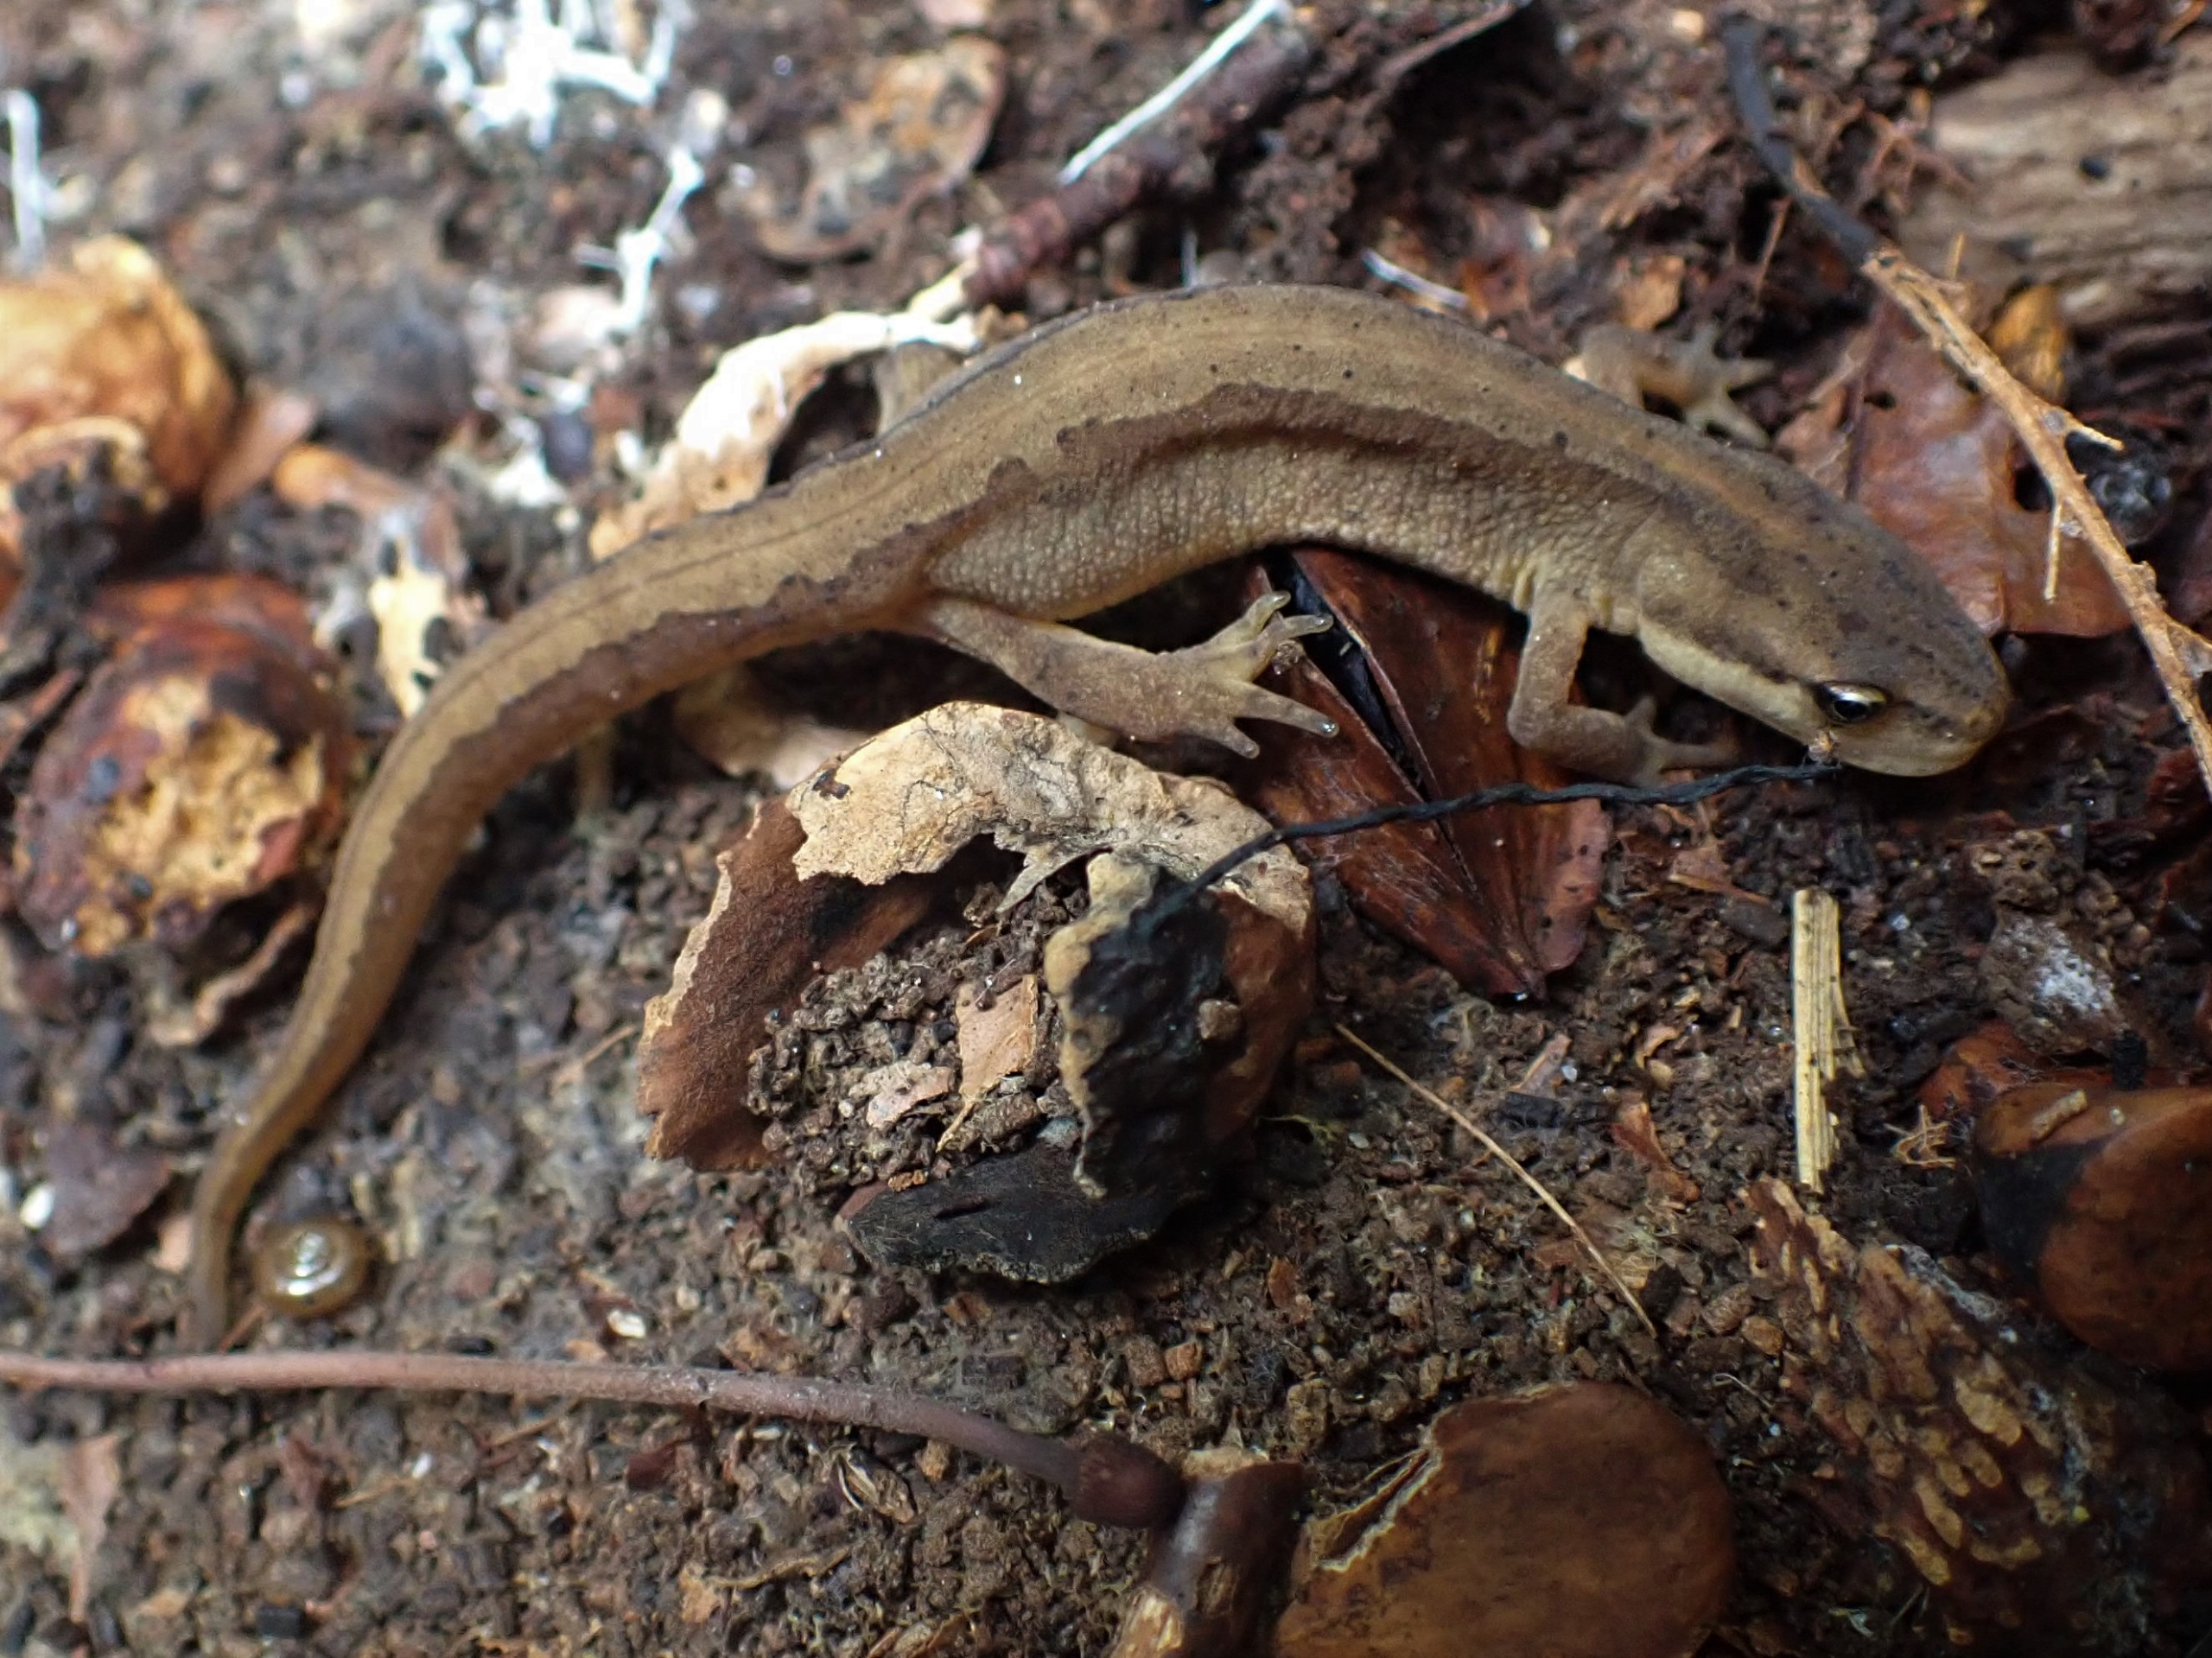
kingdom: Animalia
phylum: Chordata
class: Amphibia
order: Caudata
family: Salamandridae
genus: Lissotriton
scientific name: Lissotriton vulgaris
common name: Lille vandsalamander
